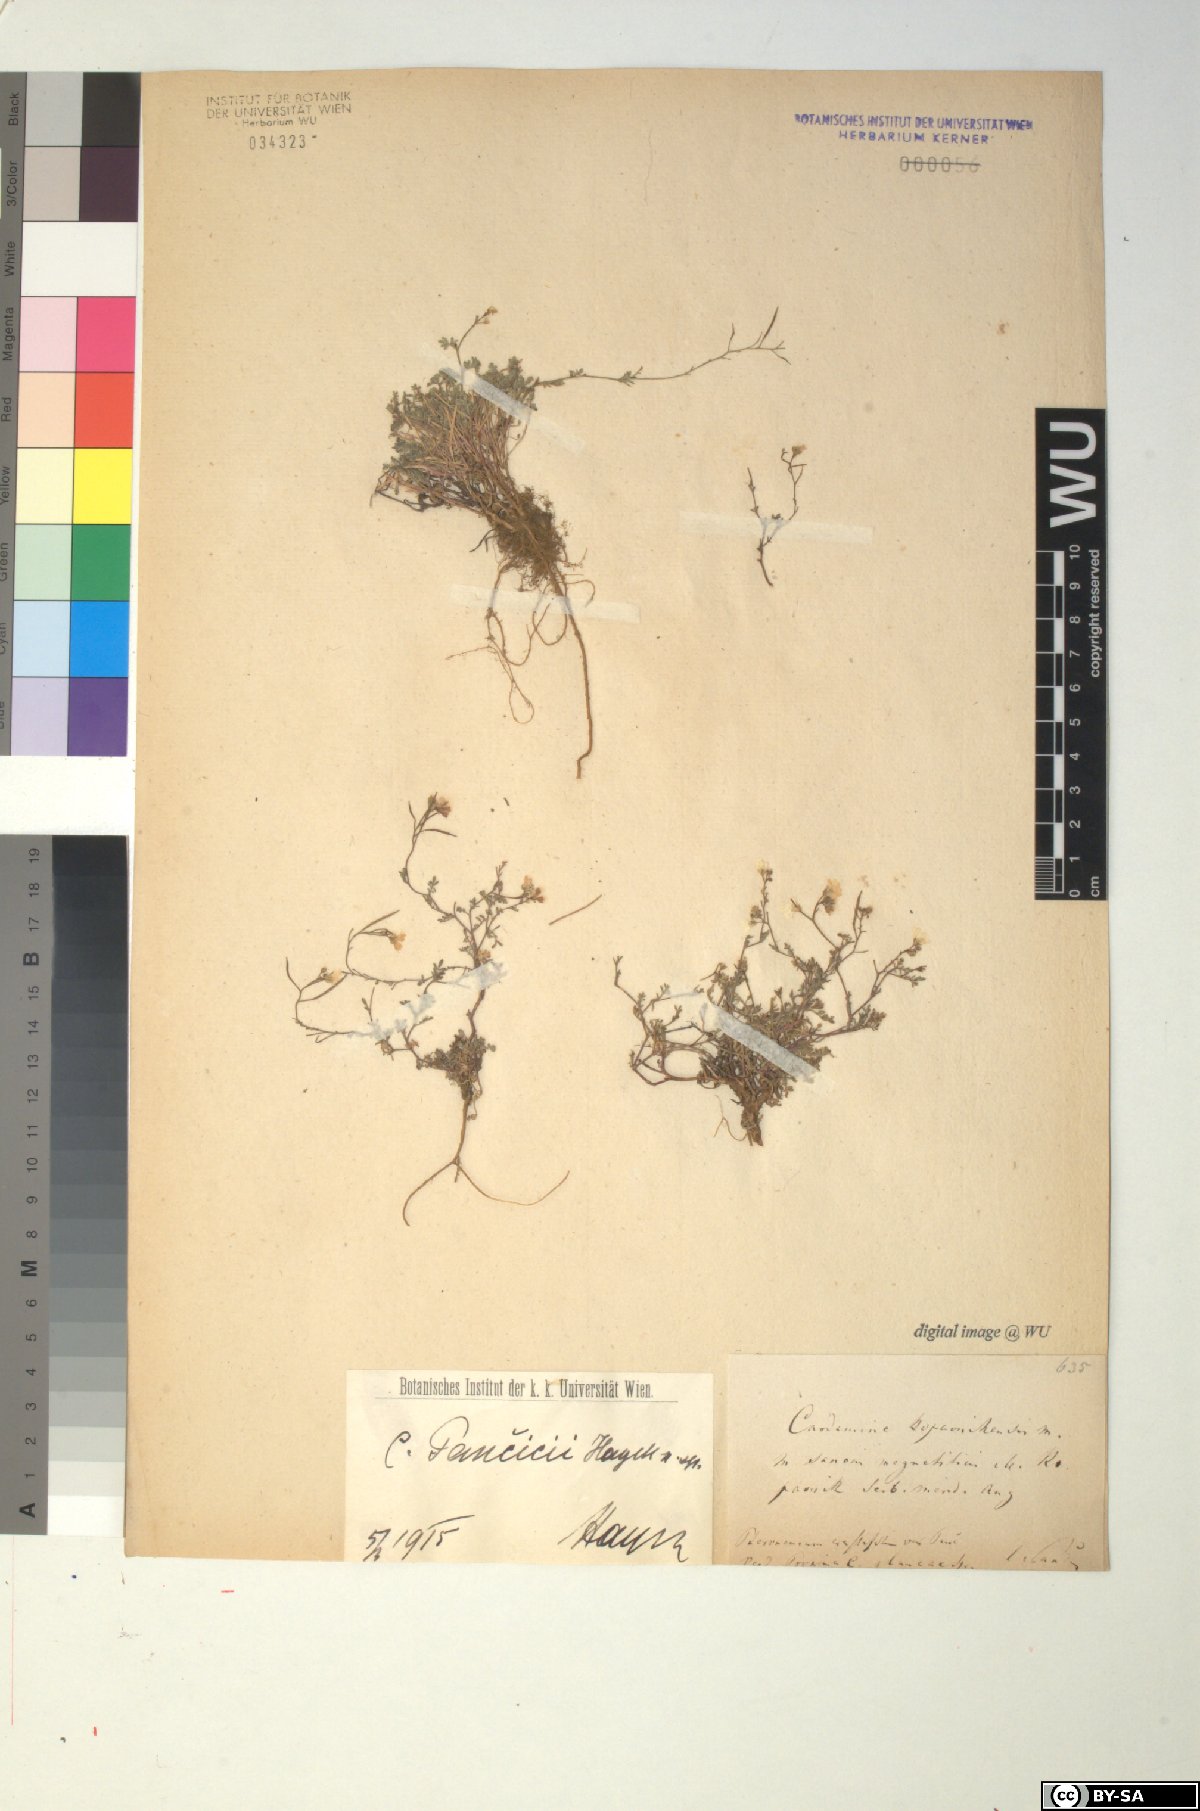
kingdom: Plantae
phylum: Tracheophyta
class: Magnoliopsida
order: Brassicales
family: Brassicaceae
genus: Cardamine
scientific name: Cardamine glauca
